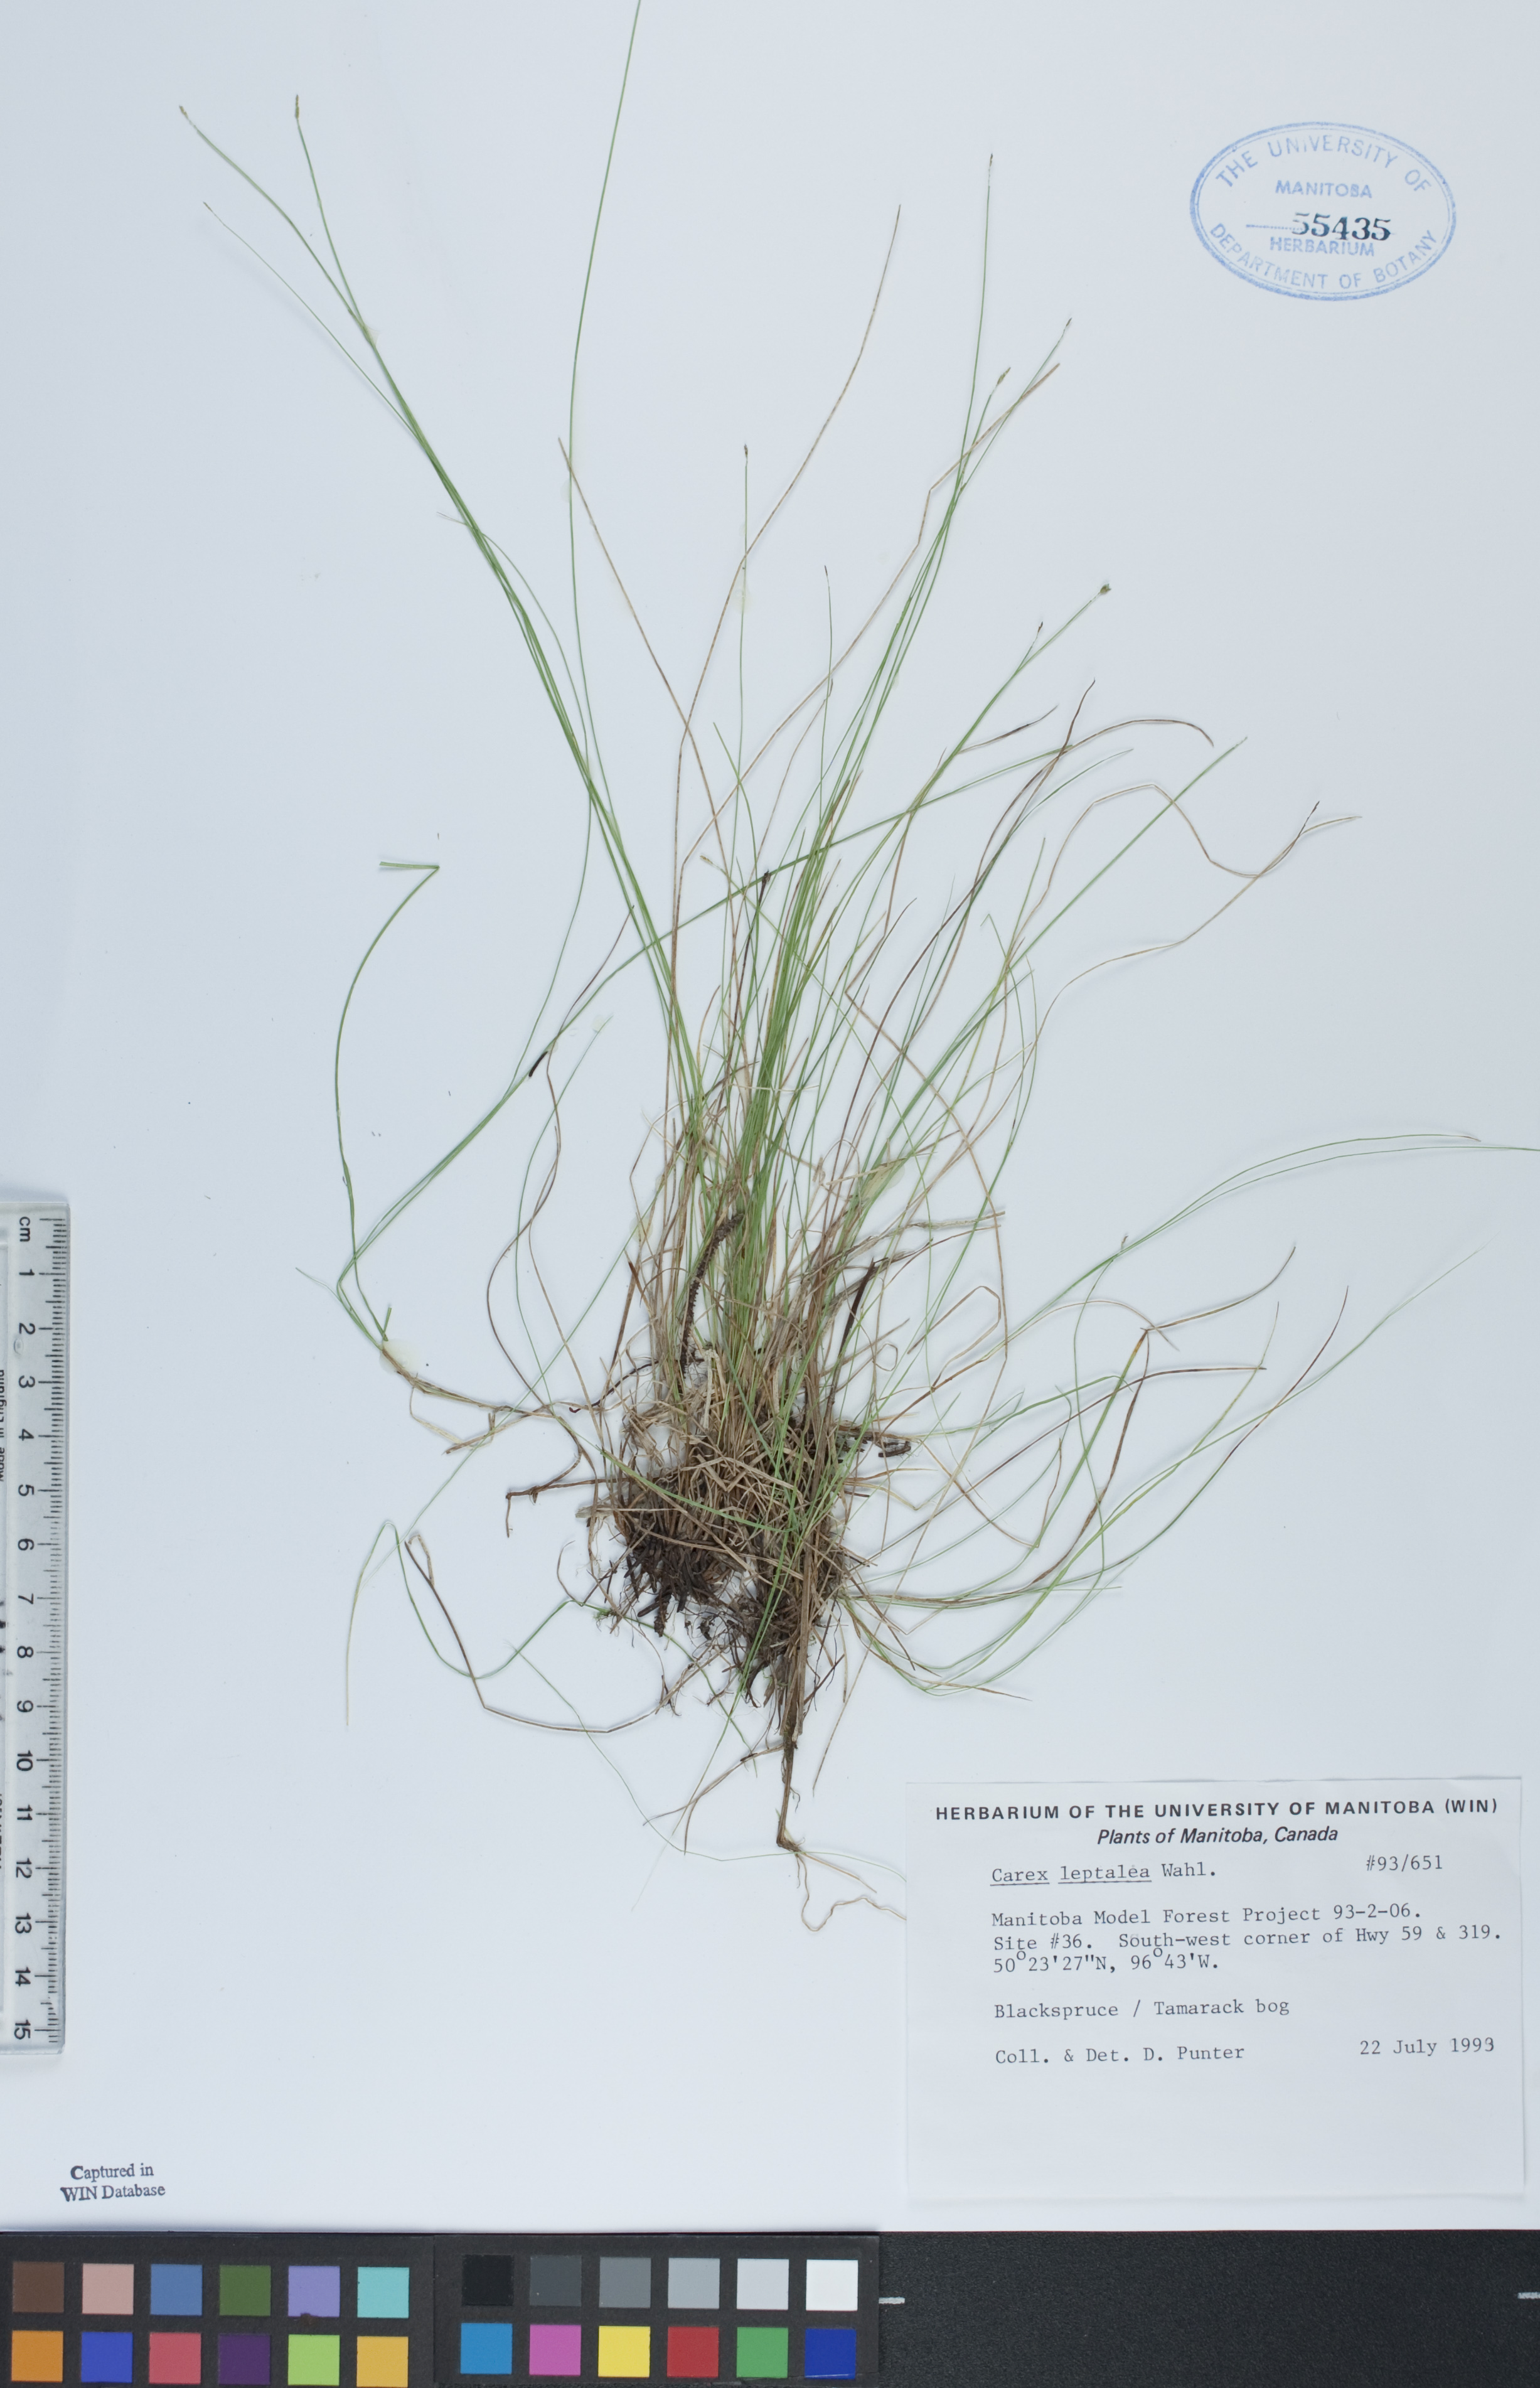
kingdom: Plantae
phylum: Tracheophyta
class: Liliopsida
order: Poales
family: Cyperaceae
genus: Carex
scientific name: Carex leptalea
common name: Bristly-stalked sedge
